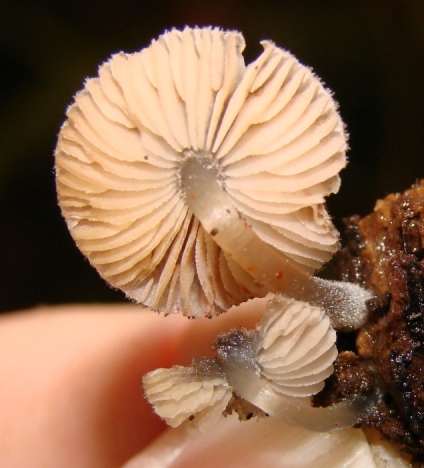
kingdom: Fungi
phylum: Basidiomycota
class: Agaricomycetes
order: Agaricales
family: Pluteaceae
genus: Pluteus
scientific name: Pluteus
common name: stivhåret skærmhat
